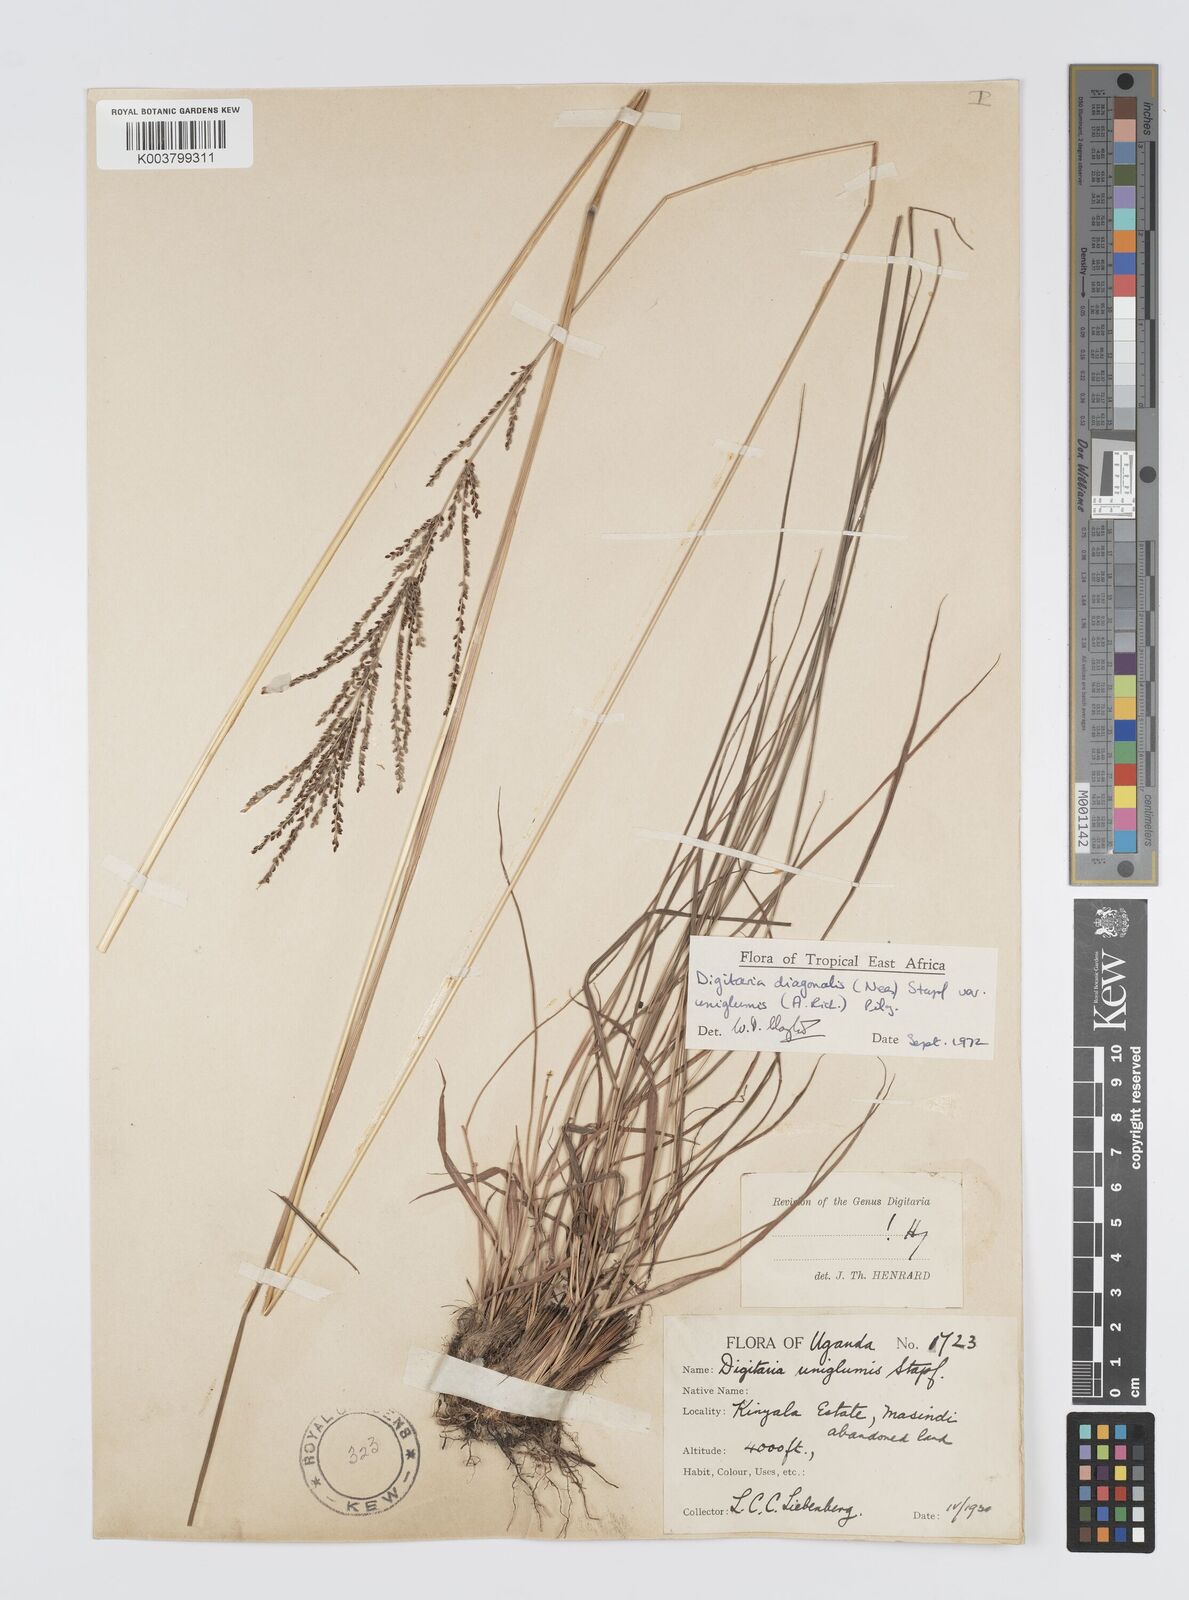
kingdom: Plantae
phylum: Tracheophyta
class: Liliopsida
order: Poales
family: Poaceae
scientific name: Poaceae
